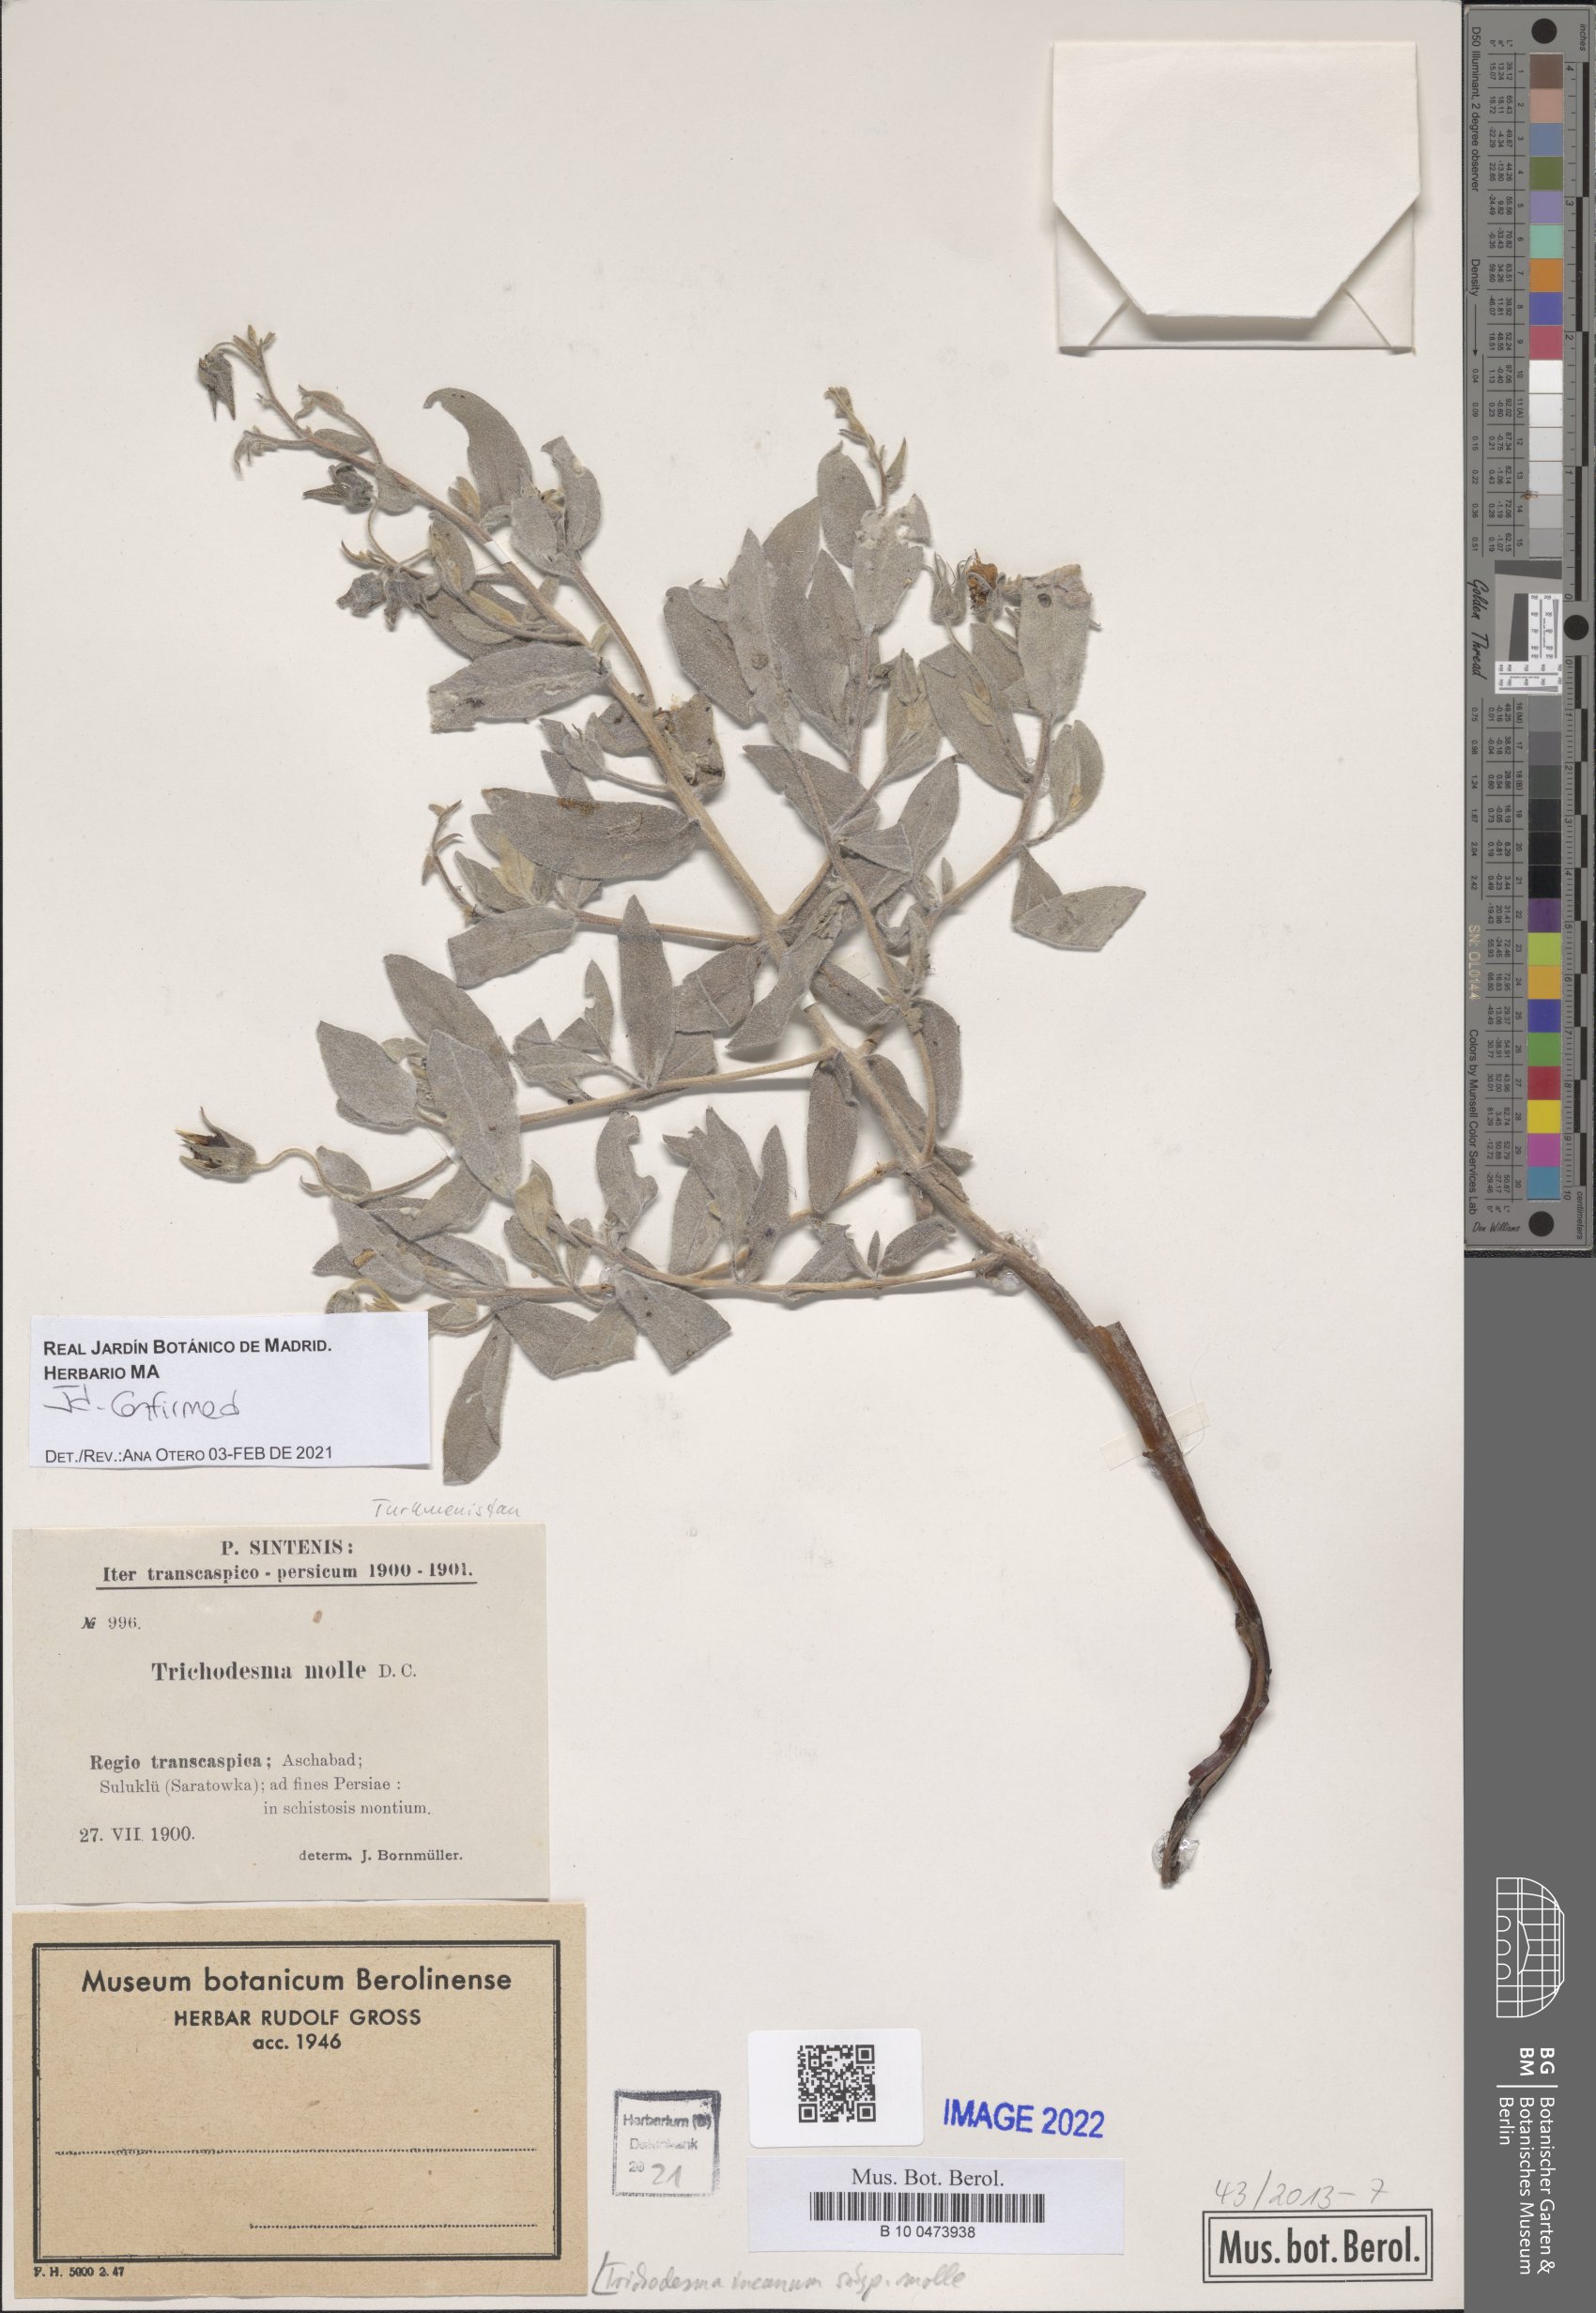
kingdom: Plantae
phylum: Tracheophyta
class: Magnoliopsida
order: Boraginales
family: Boraginaceae
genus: Trichodesma
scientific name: Trichodesma incanum
